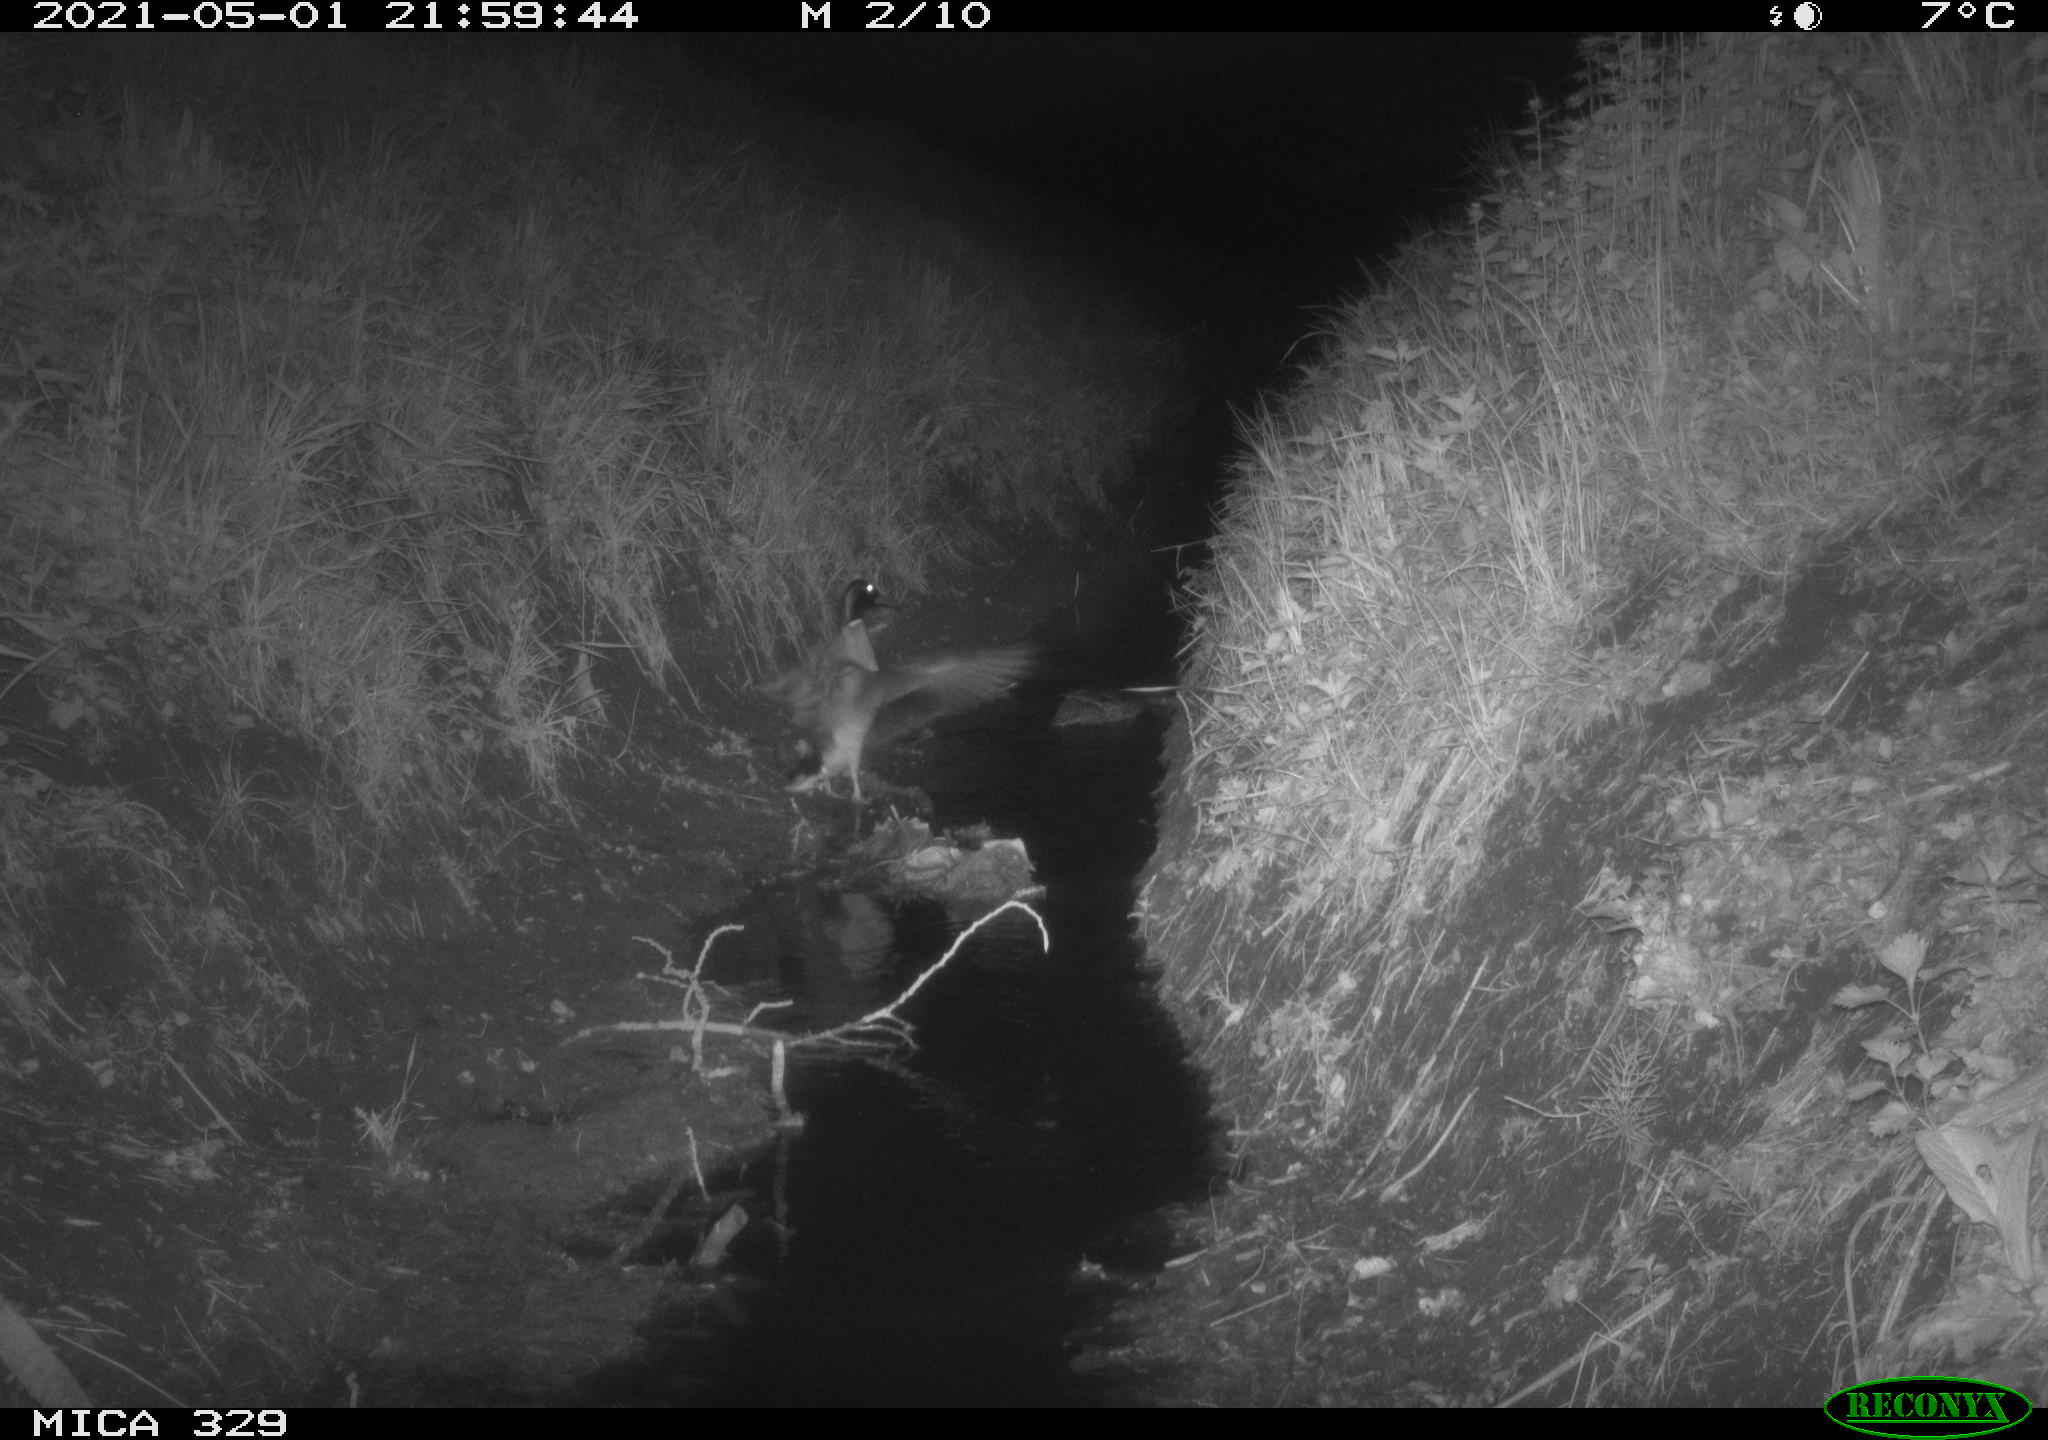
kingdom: Animalia
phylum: Chordata
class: Aves
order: Anseriformes
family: Anatidae
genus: Anas
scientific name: Anas platyrhynchos
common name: Mallard
